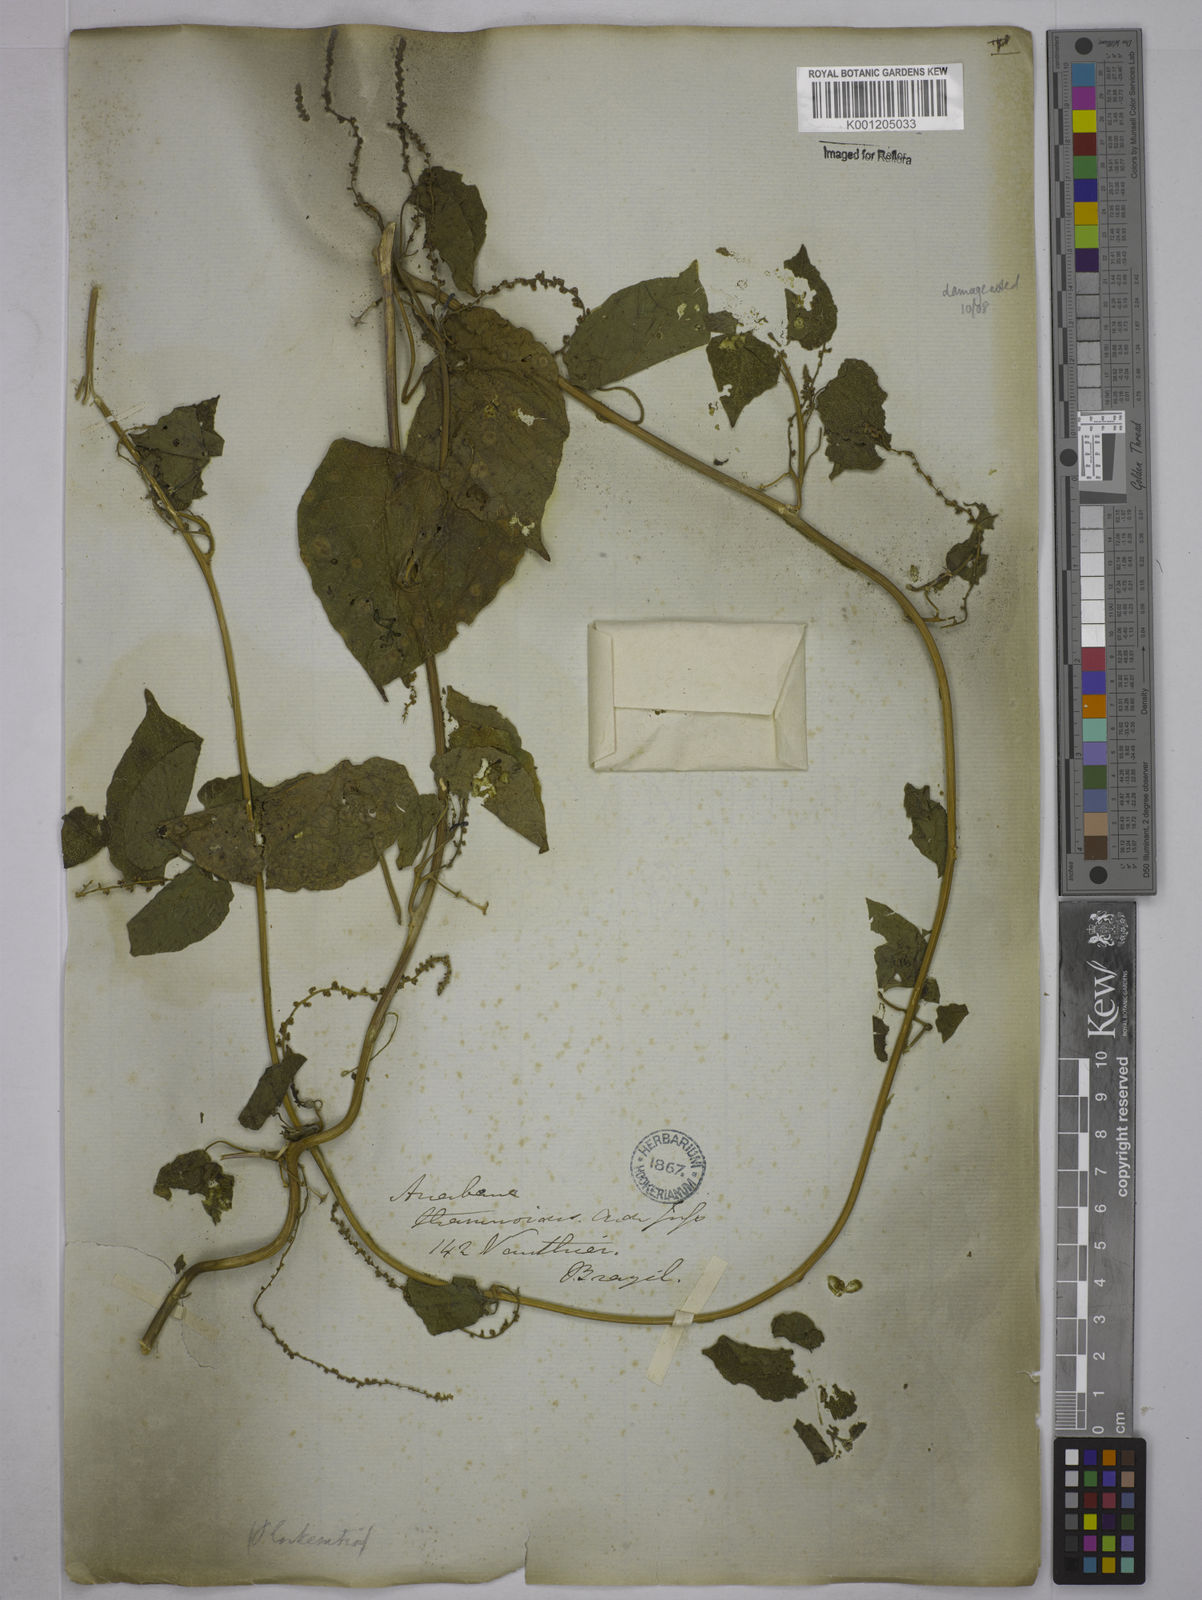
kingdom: Plantae
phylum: Tracheophyta
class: Magnoliopsida
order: Malpighiales
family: Euphorbiaceae
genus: Romanoa
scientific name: Romanoa tamnoides
